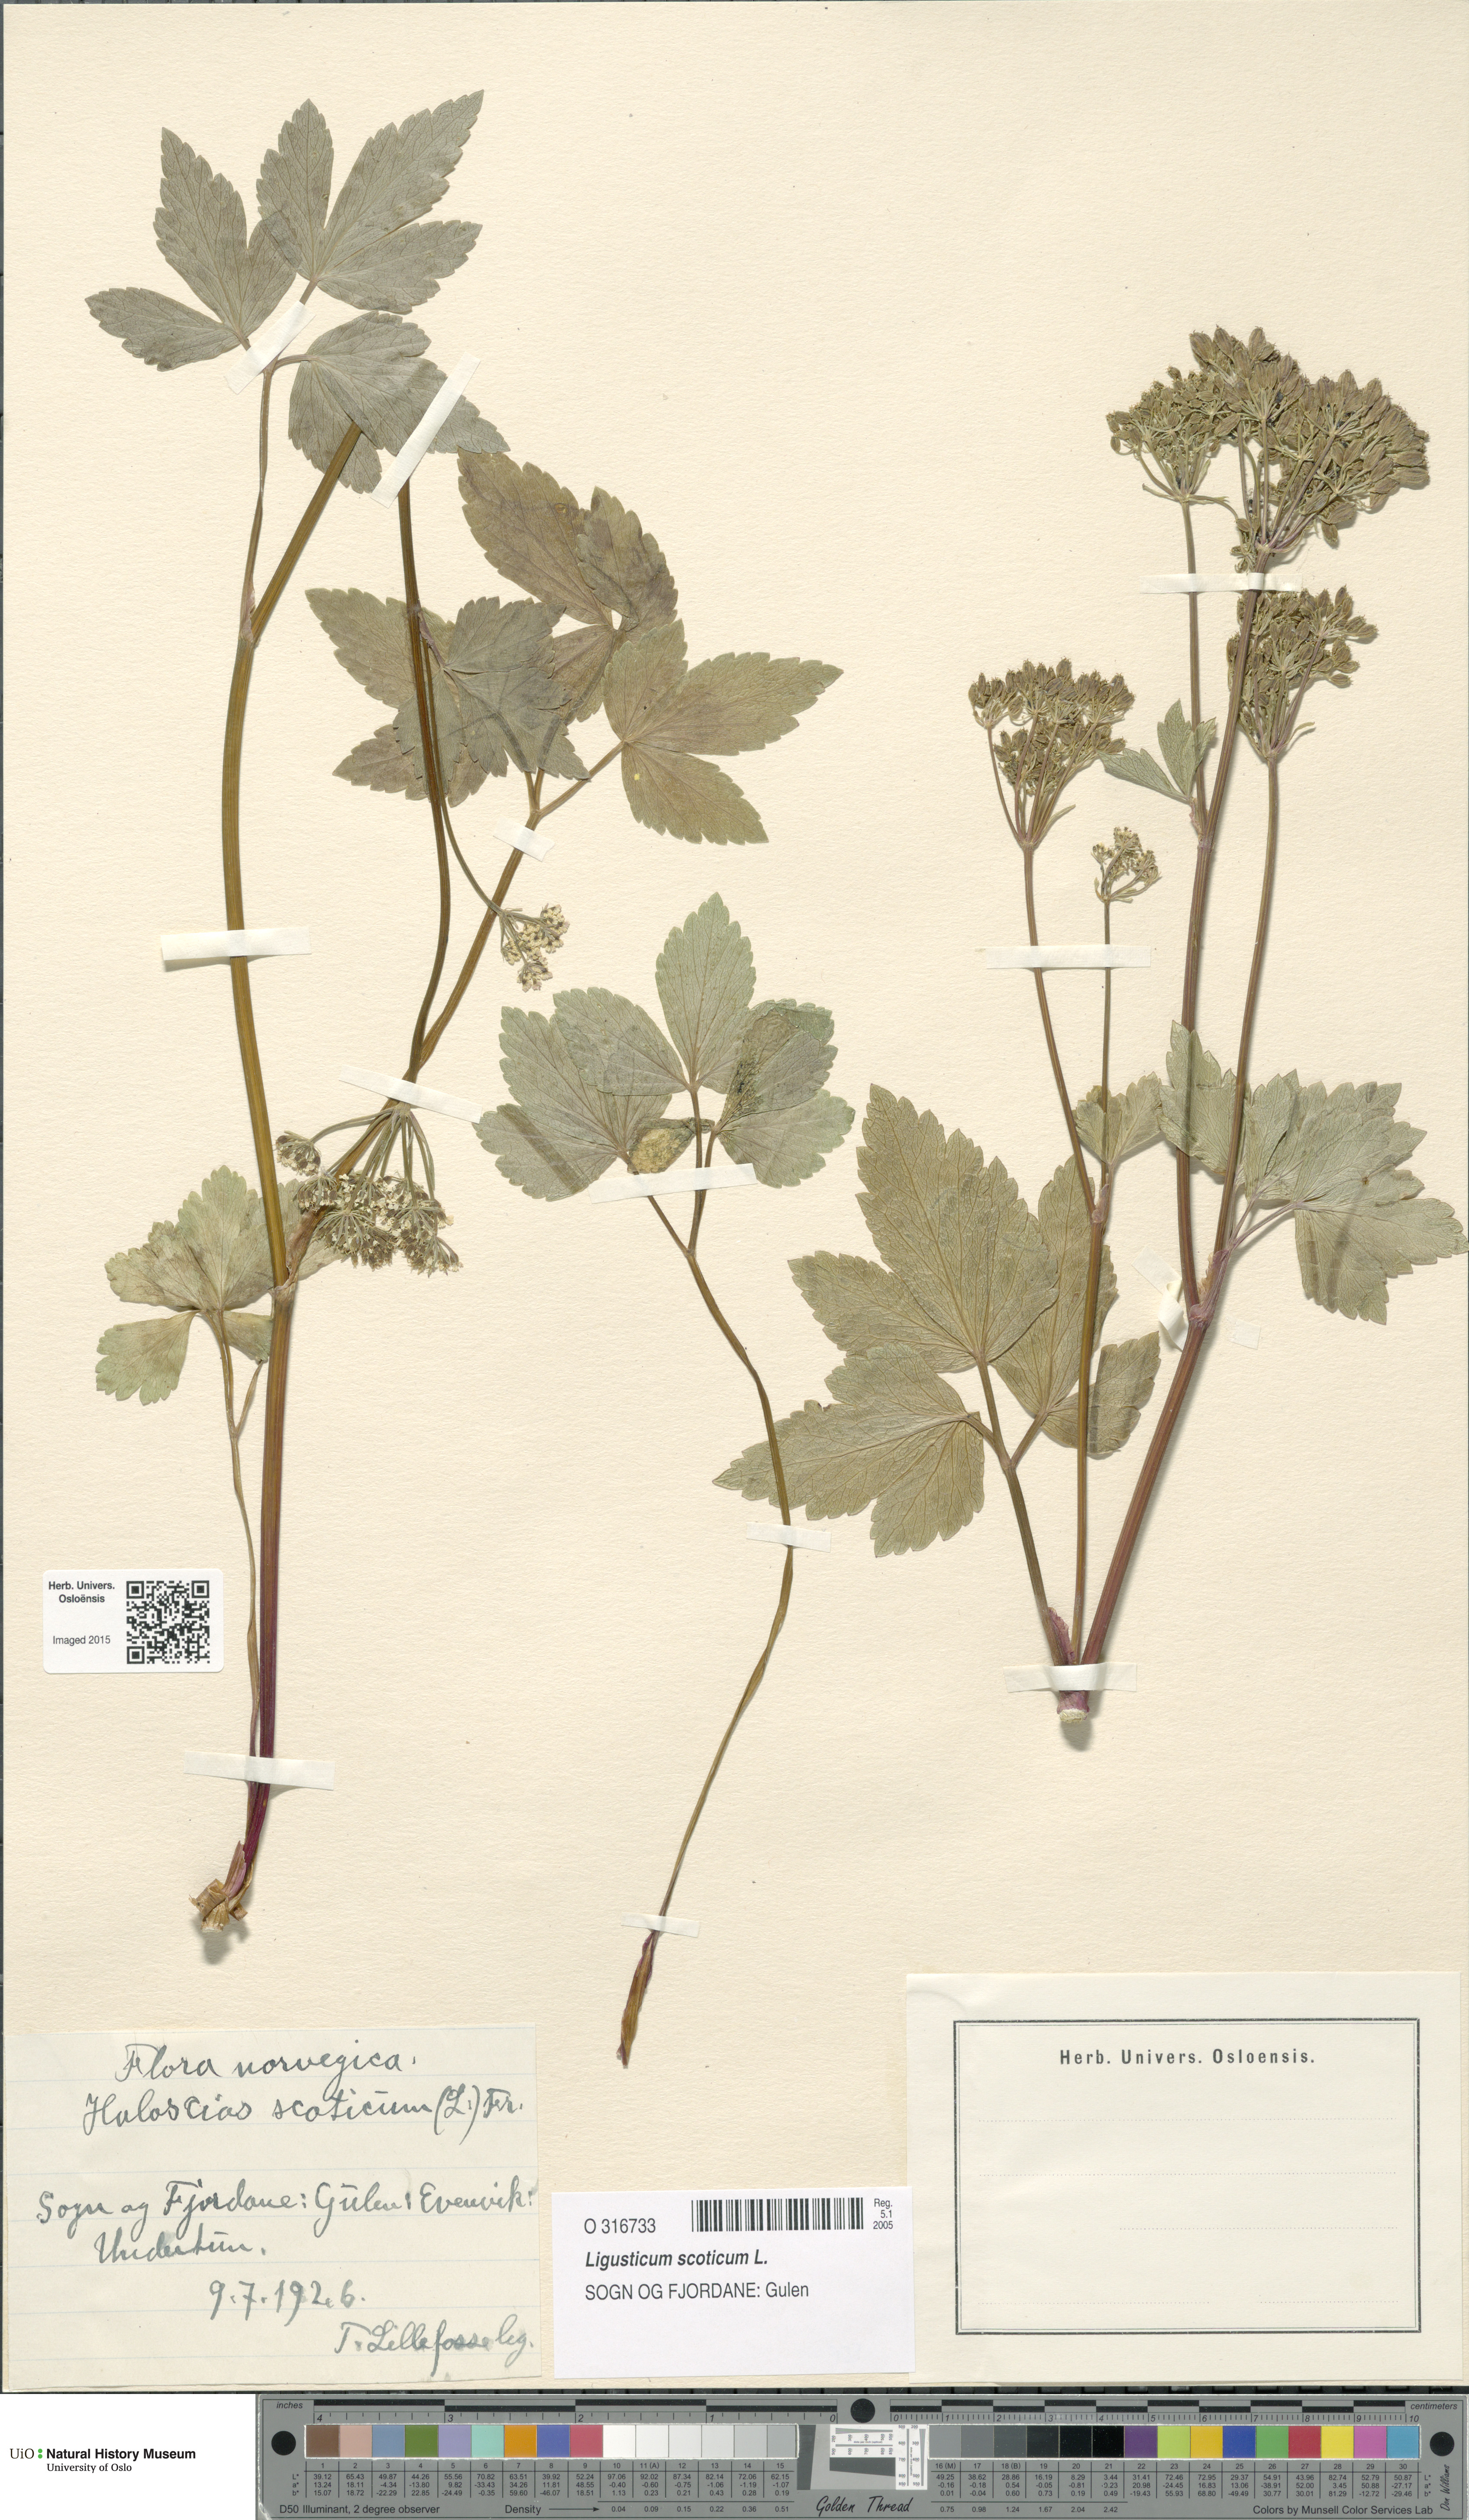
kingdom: Plantae
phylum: Tracheophyta
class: Magnoliopsida
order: Apiales
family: Apiaceae
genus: Ligusticum
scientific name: Ligusticum scothicum
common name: Beach lovage
